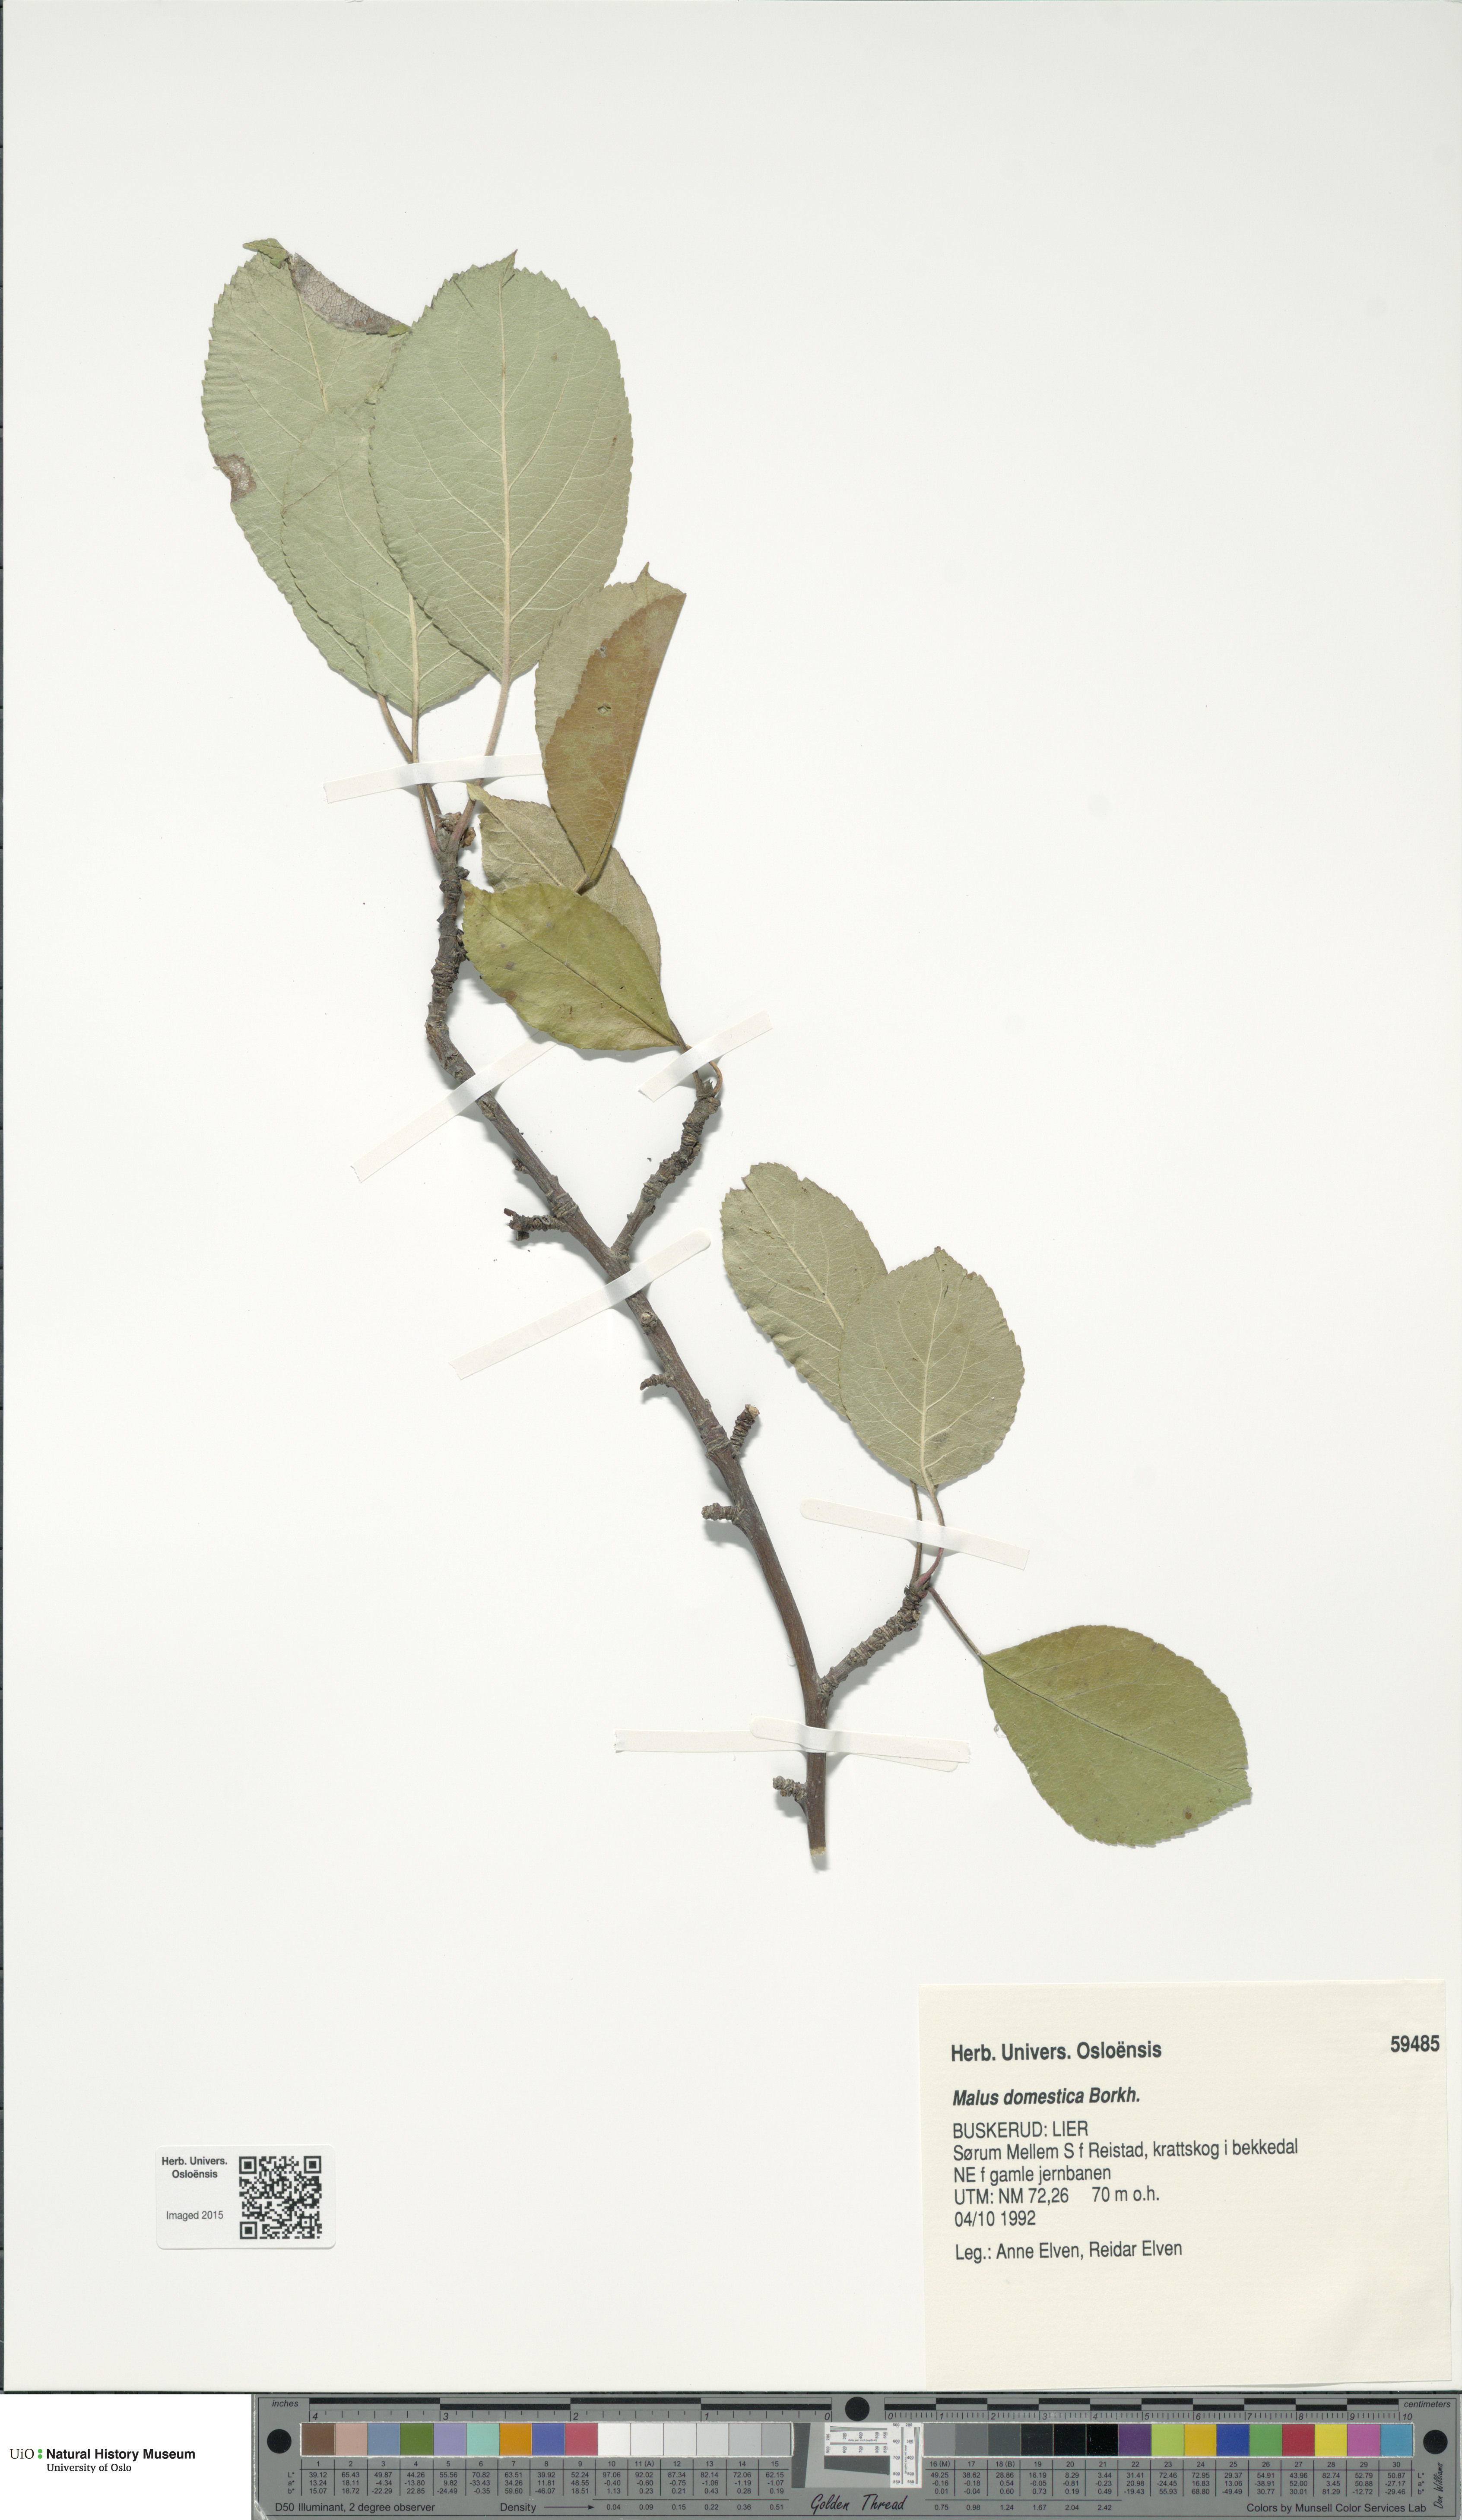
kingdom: Plantae
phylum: Tracheophyta
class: Magnoliopsida
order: Rosales
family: Rosaceae
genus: Malus
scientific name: Malus domestica
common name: Apple
